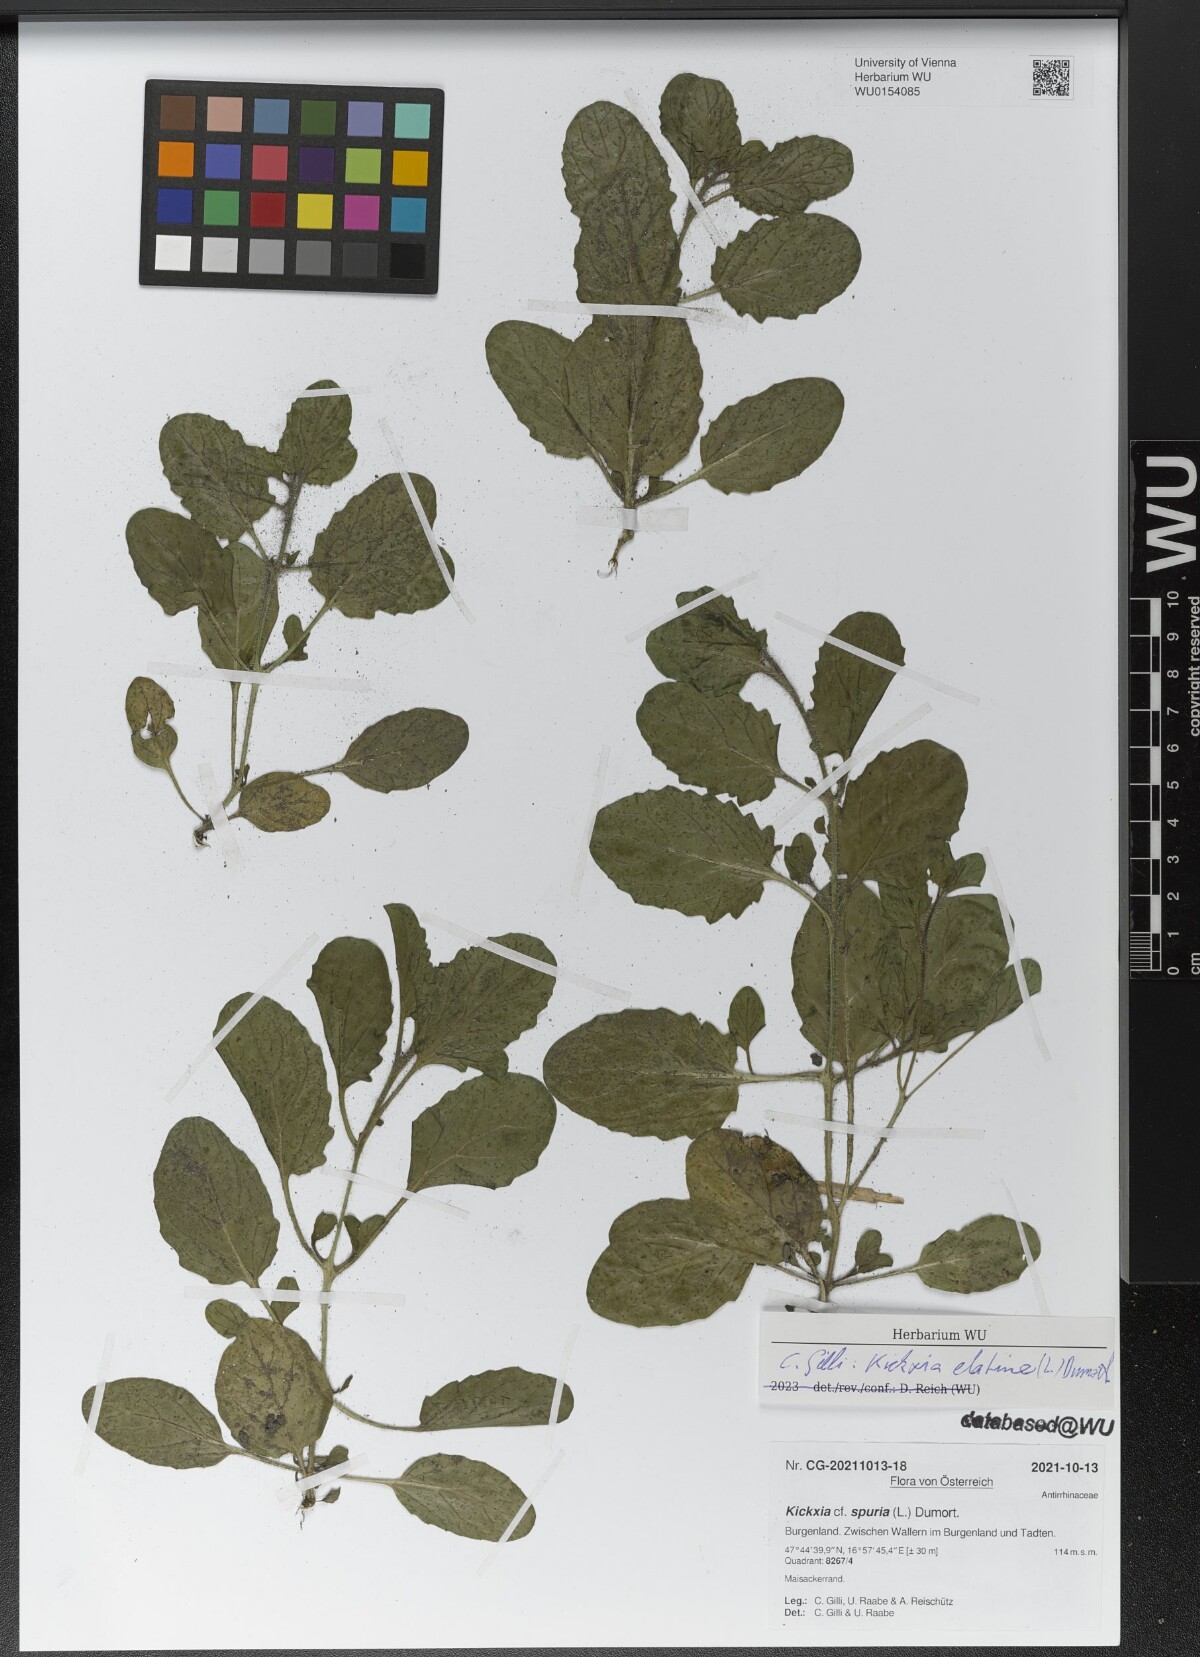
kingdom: Plantae
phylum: Tracheophyta
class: Magnoliopsida
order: Lamiales
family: Plantaginaceae
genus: Kickxia
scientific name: Kickxia elatine
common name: Sharp-leaved fluellen
